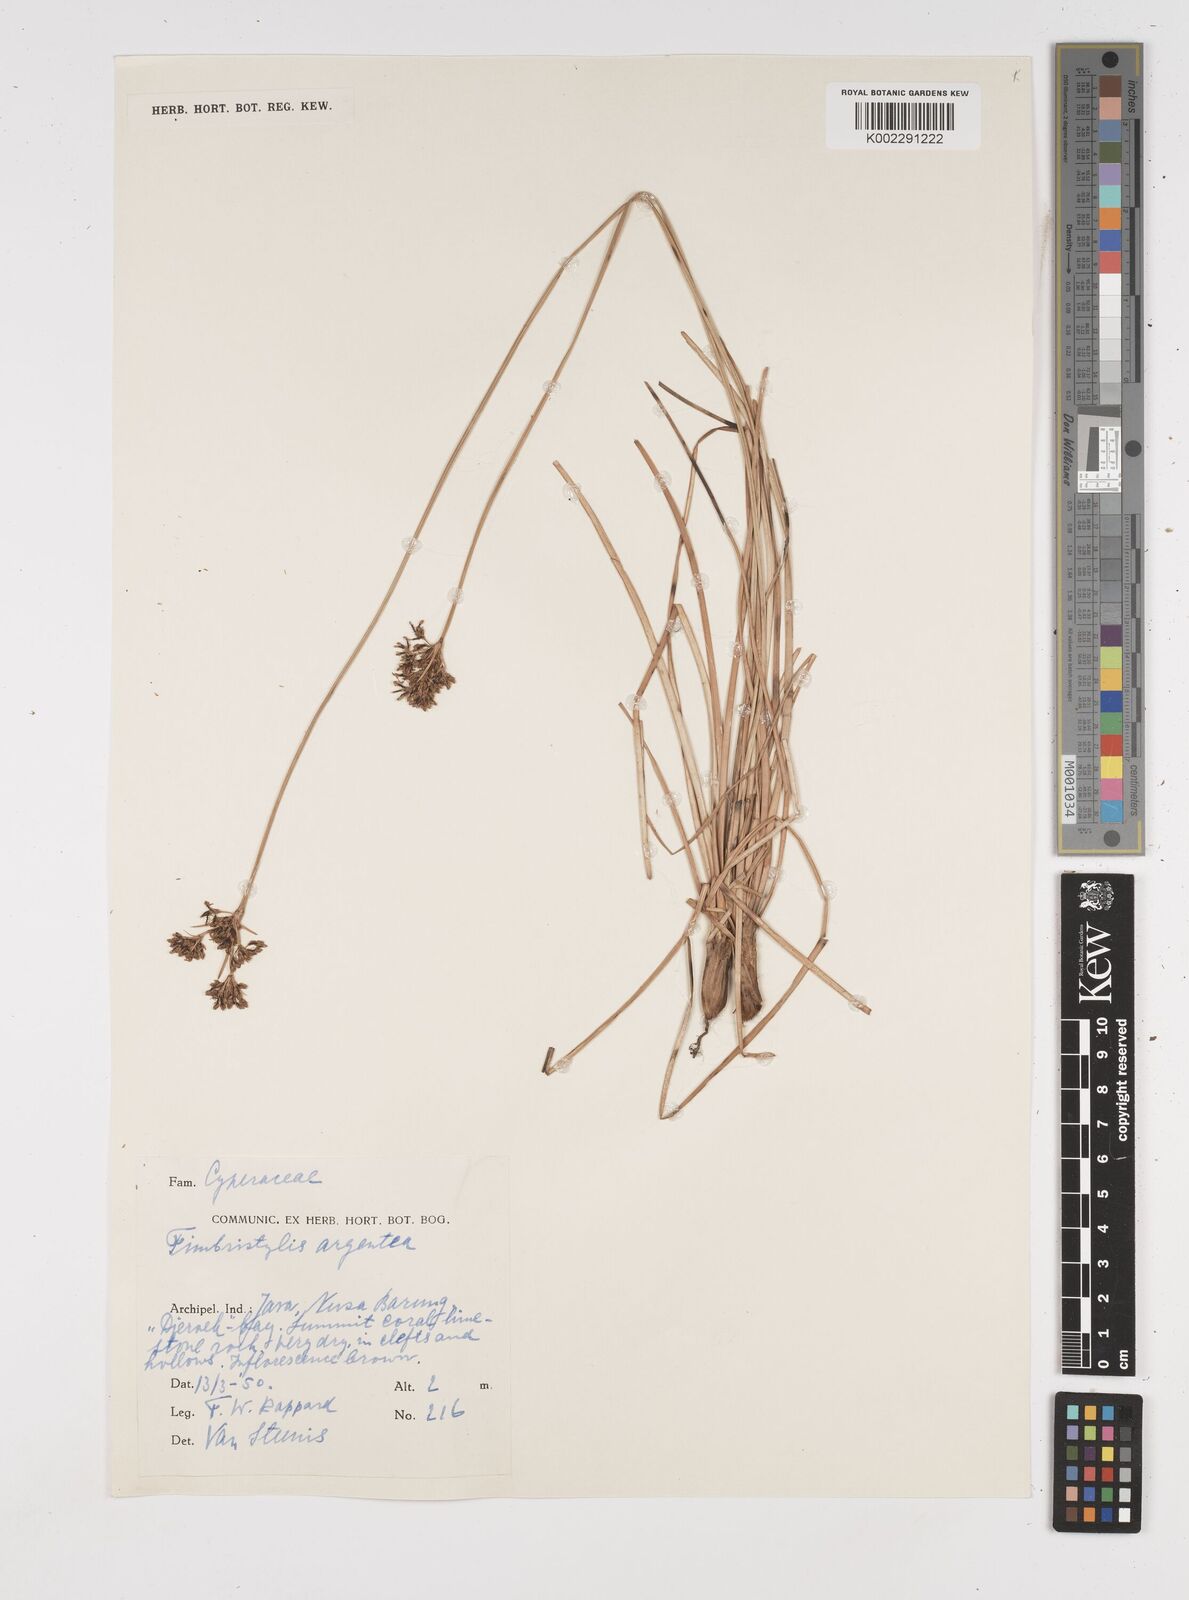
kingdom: Plantae
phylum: Tracheophyta
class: Liliopsida
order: Poales
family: Cyperaceae
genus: Fimbristylis
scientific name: Fimbristylis argentea
